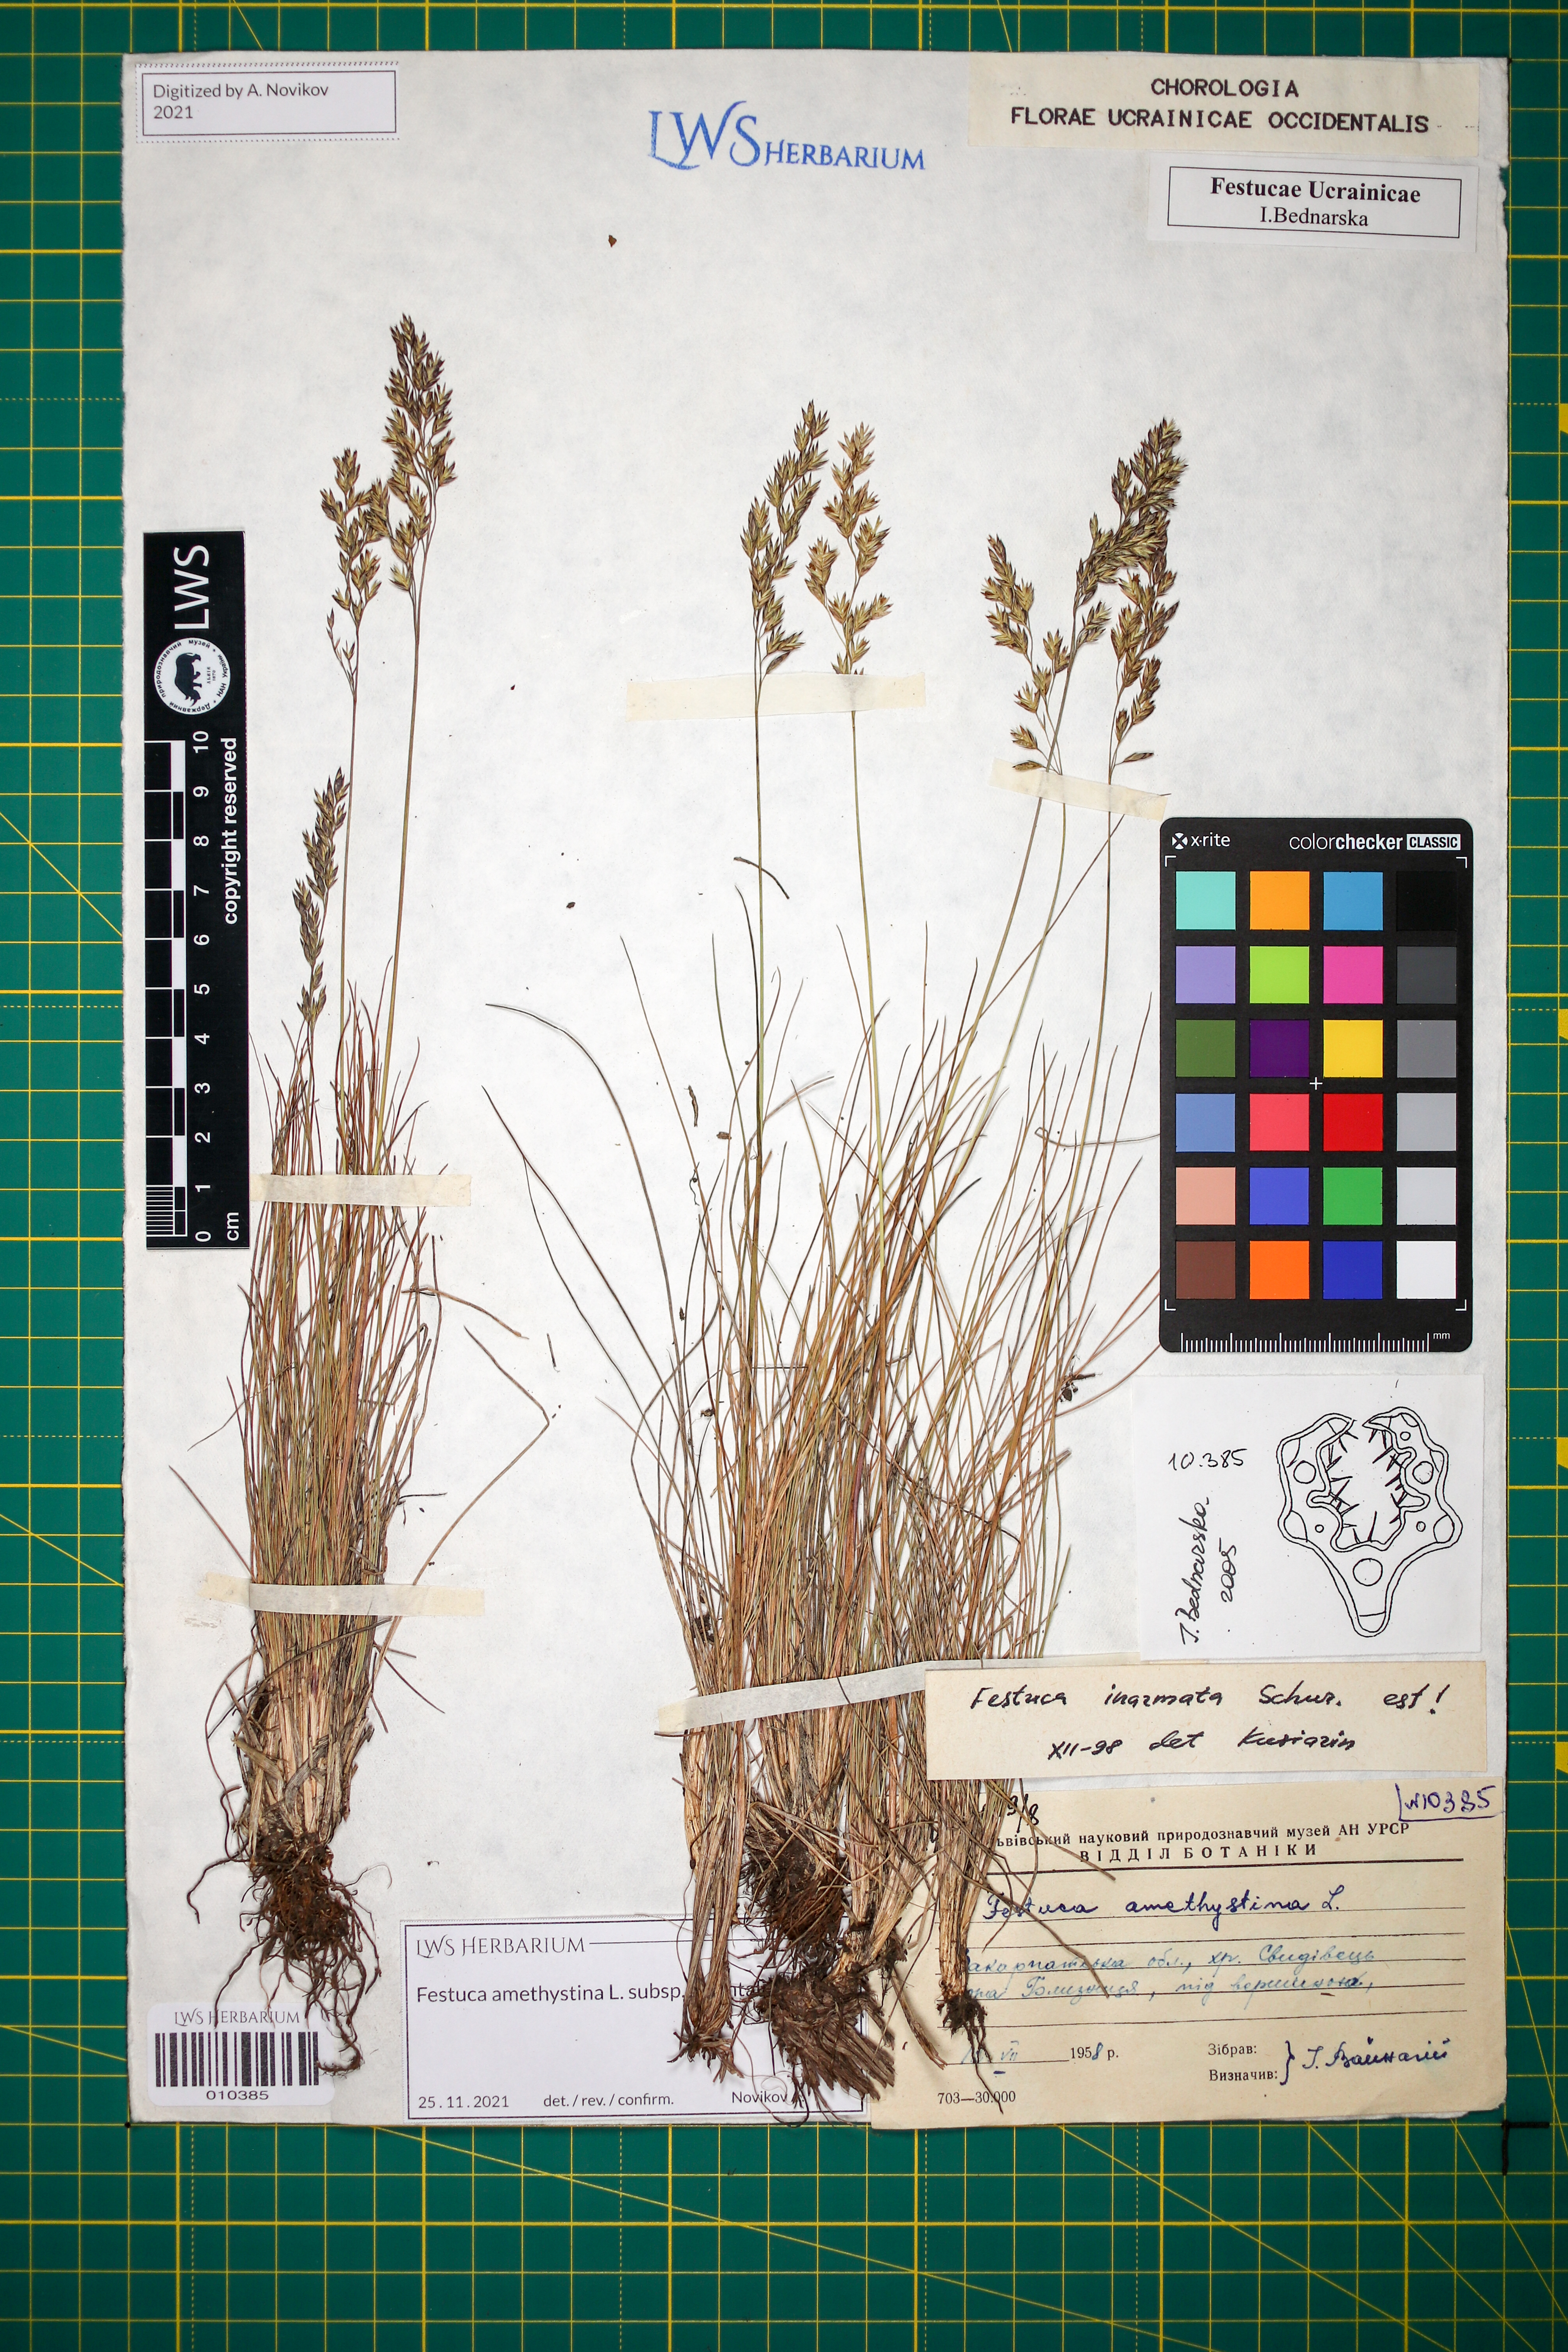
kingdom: Plantae
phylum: Tracheophyta
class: Liliopsida
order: Poales
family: Poaceae
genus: Festuca
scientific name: Festuca amethystina
